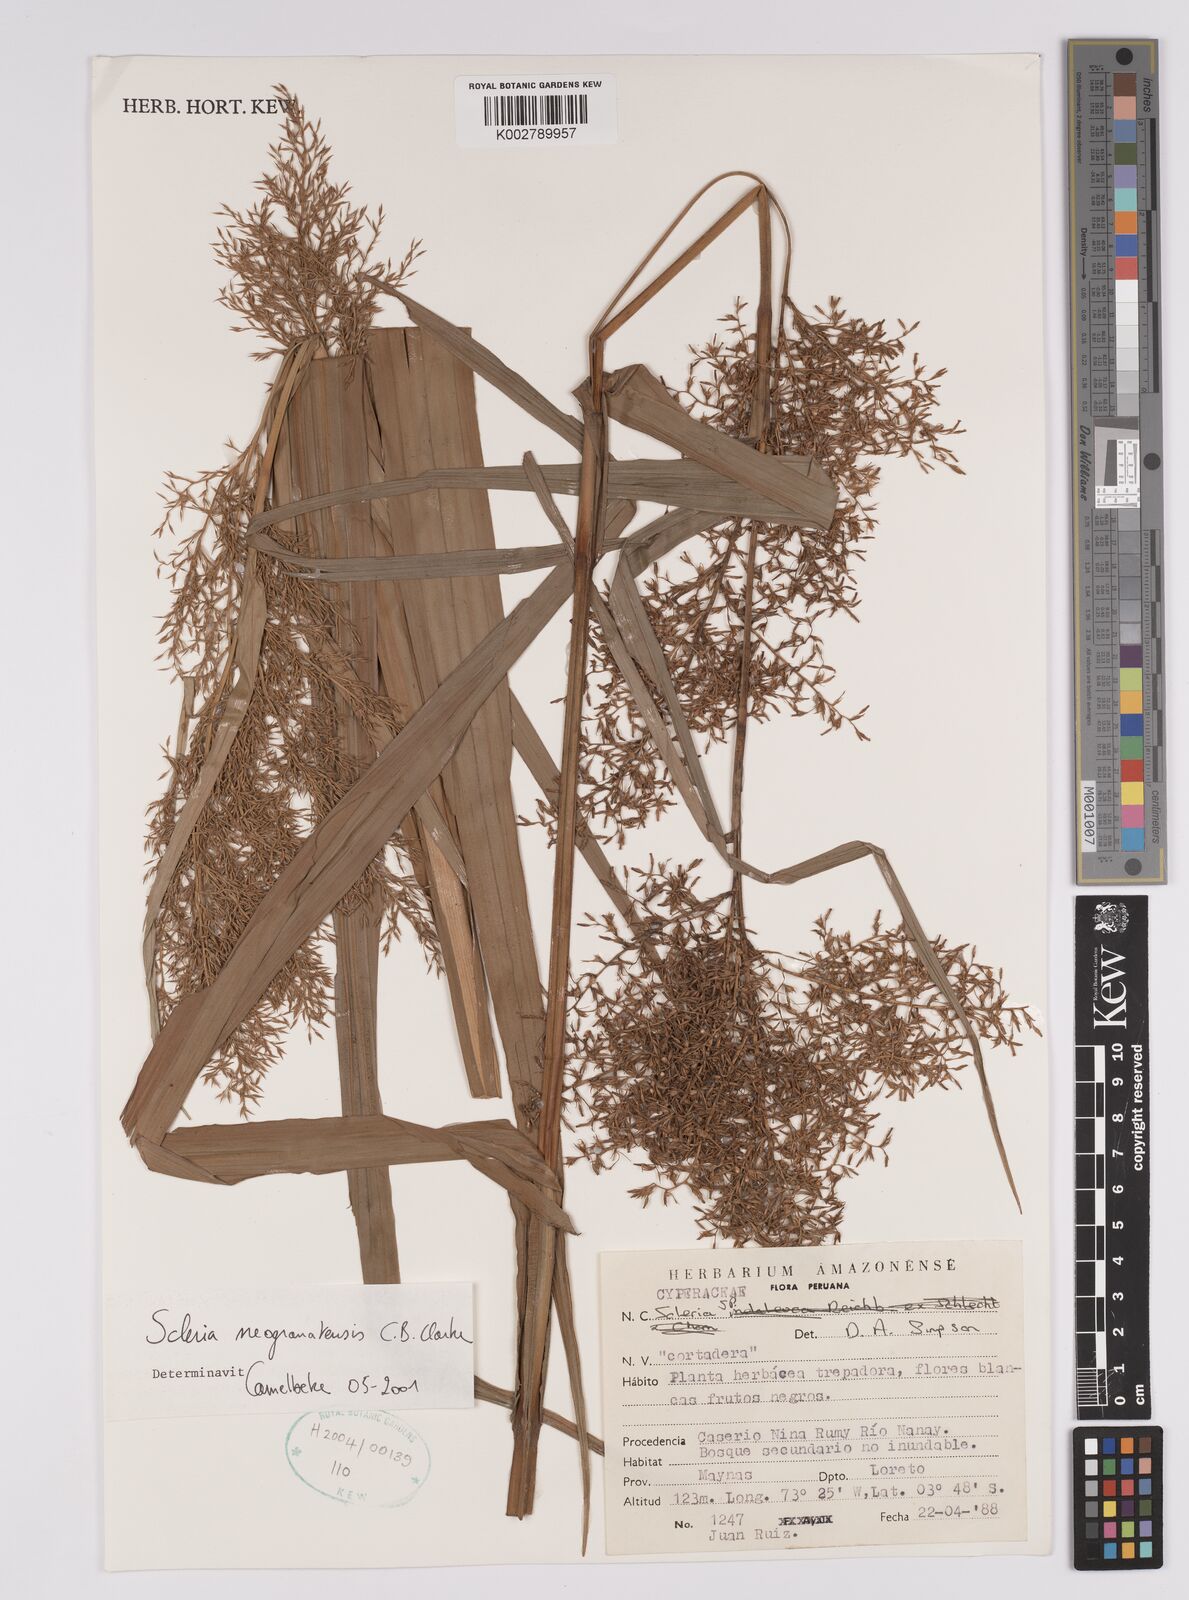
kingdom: Plantae
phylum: Tracheophyta
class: Liliopsida
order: Poales
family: Cyperaceae
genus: Scleria
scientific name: Scleria neogranatensis
